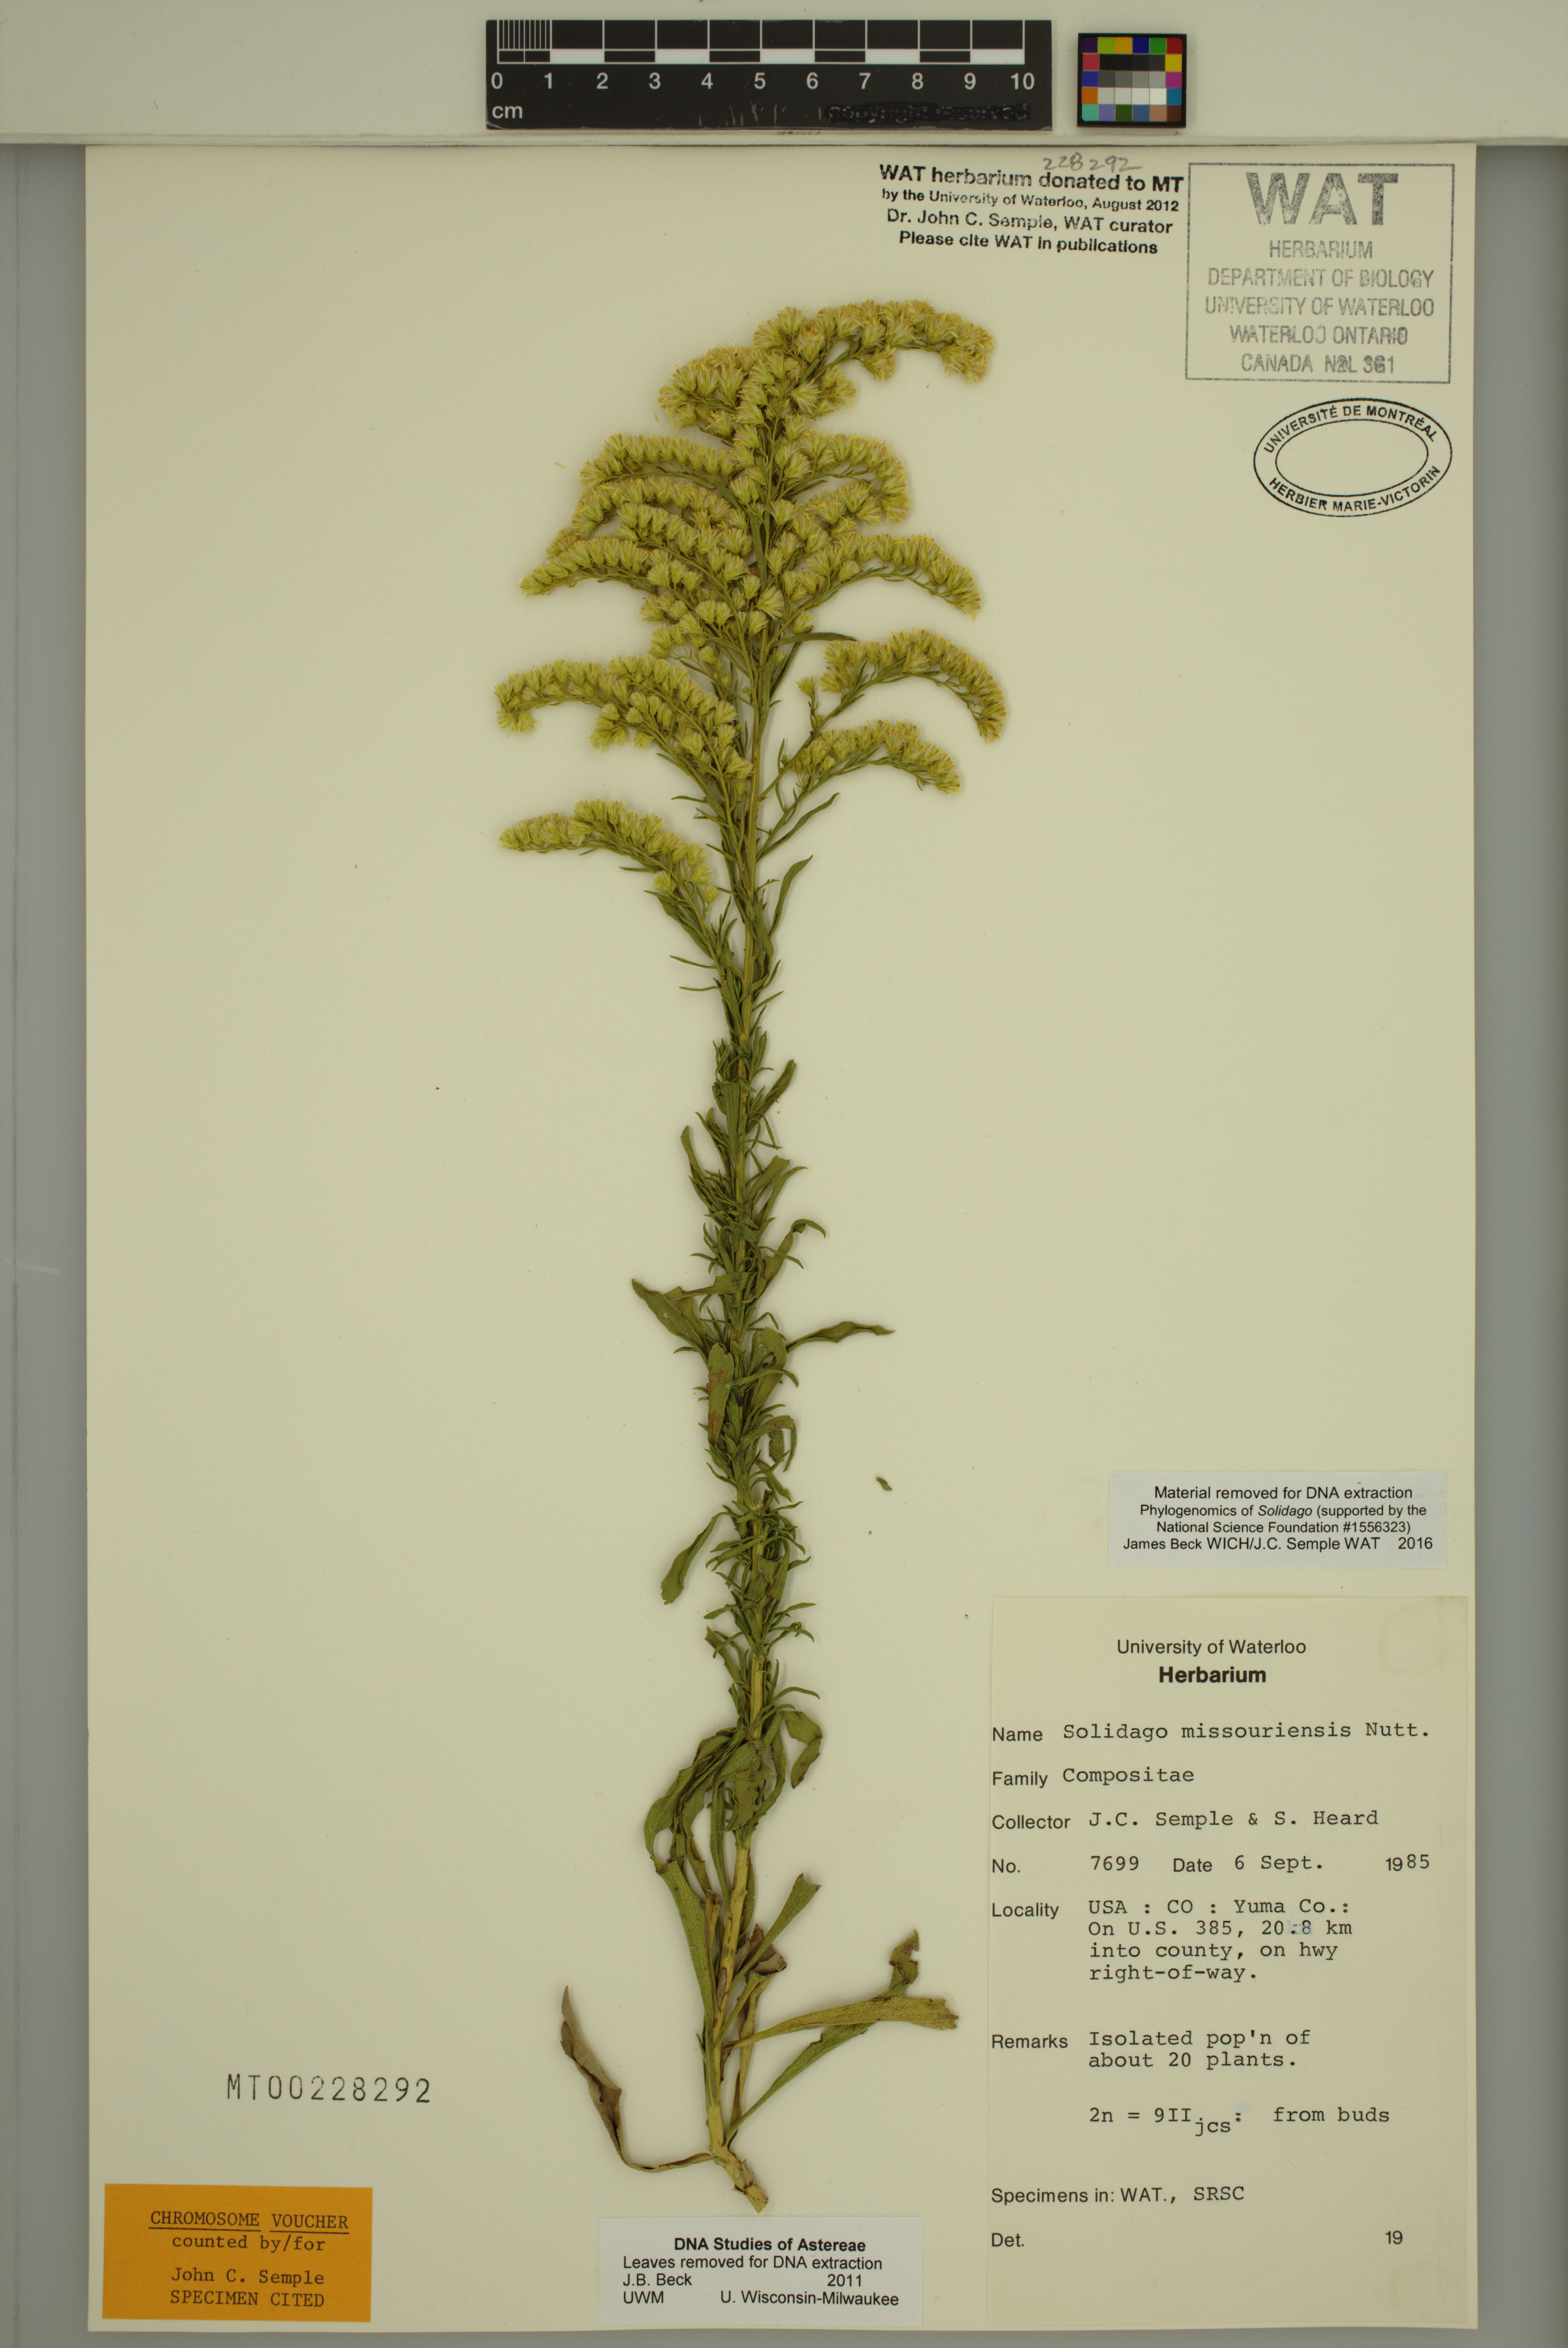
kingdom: Plantae
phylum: Tracheophyta
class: Magnoliopsida
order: Asterales
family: Asteraceae
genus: Solidago
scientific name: Solidago missouriensis
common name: Prairie goldenrod
